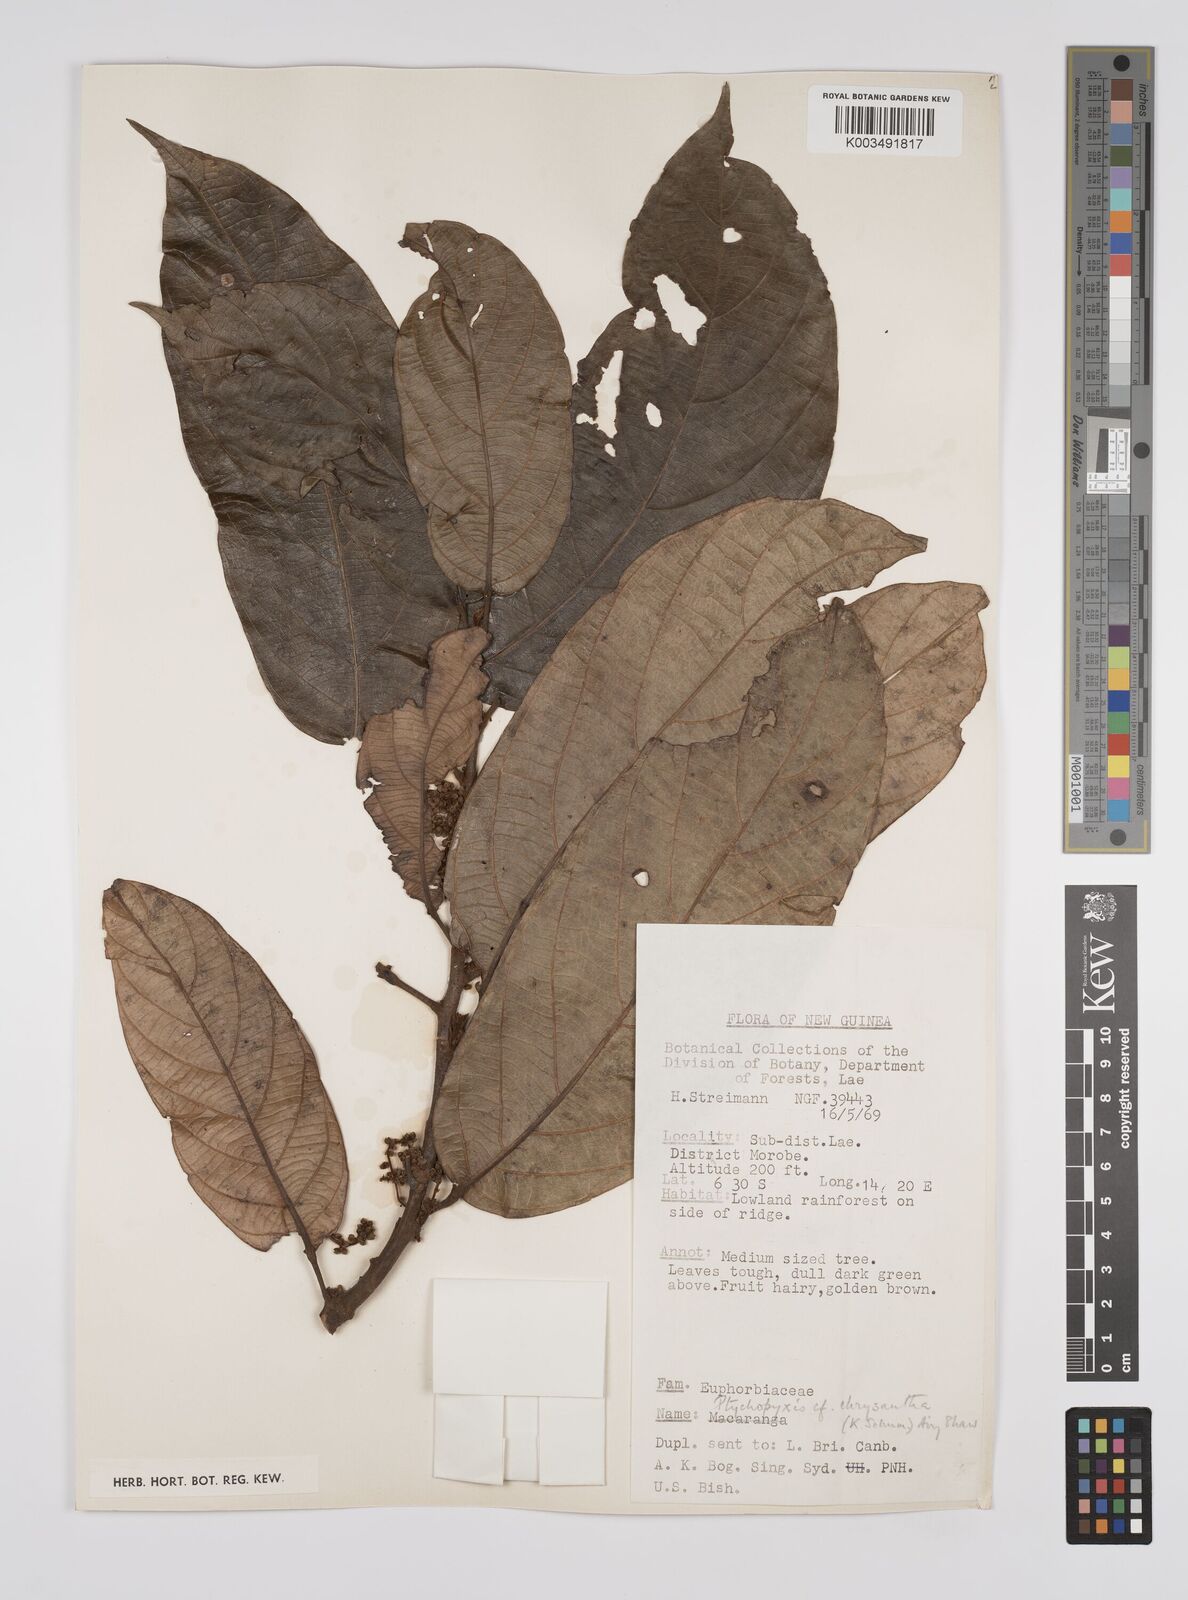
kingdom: Plantae
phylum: Tracheophyta
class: Magnoliopsida
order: Malpighiales
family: Euphorbiaceae
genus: Ptychopyxis
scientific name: Ptychopyxis chrysantha
